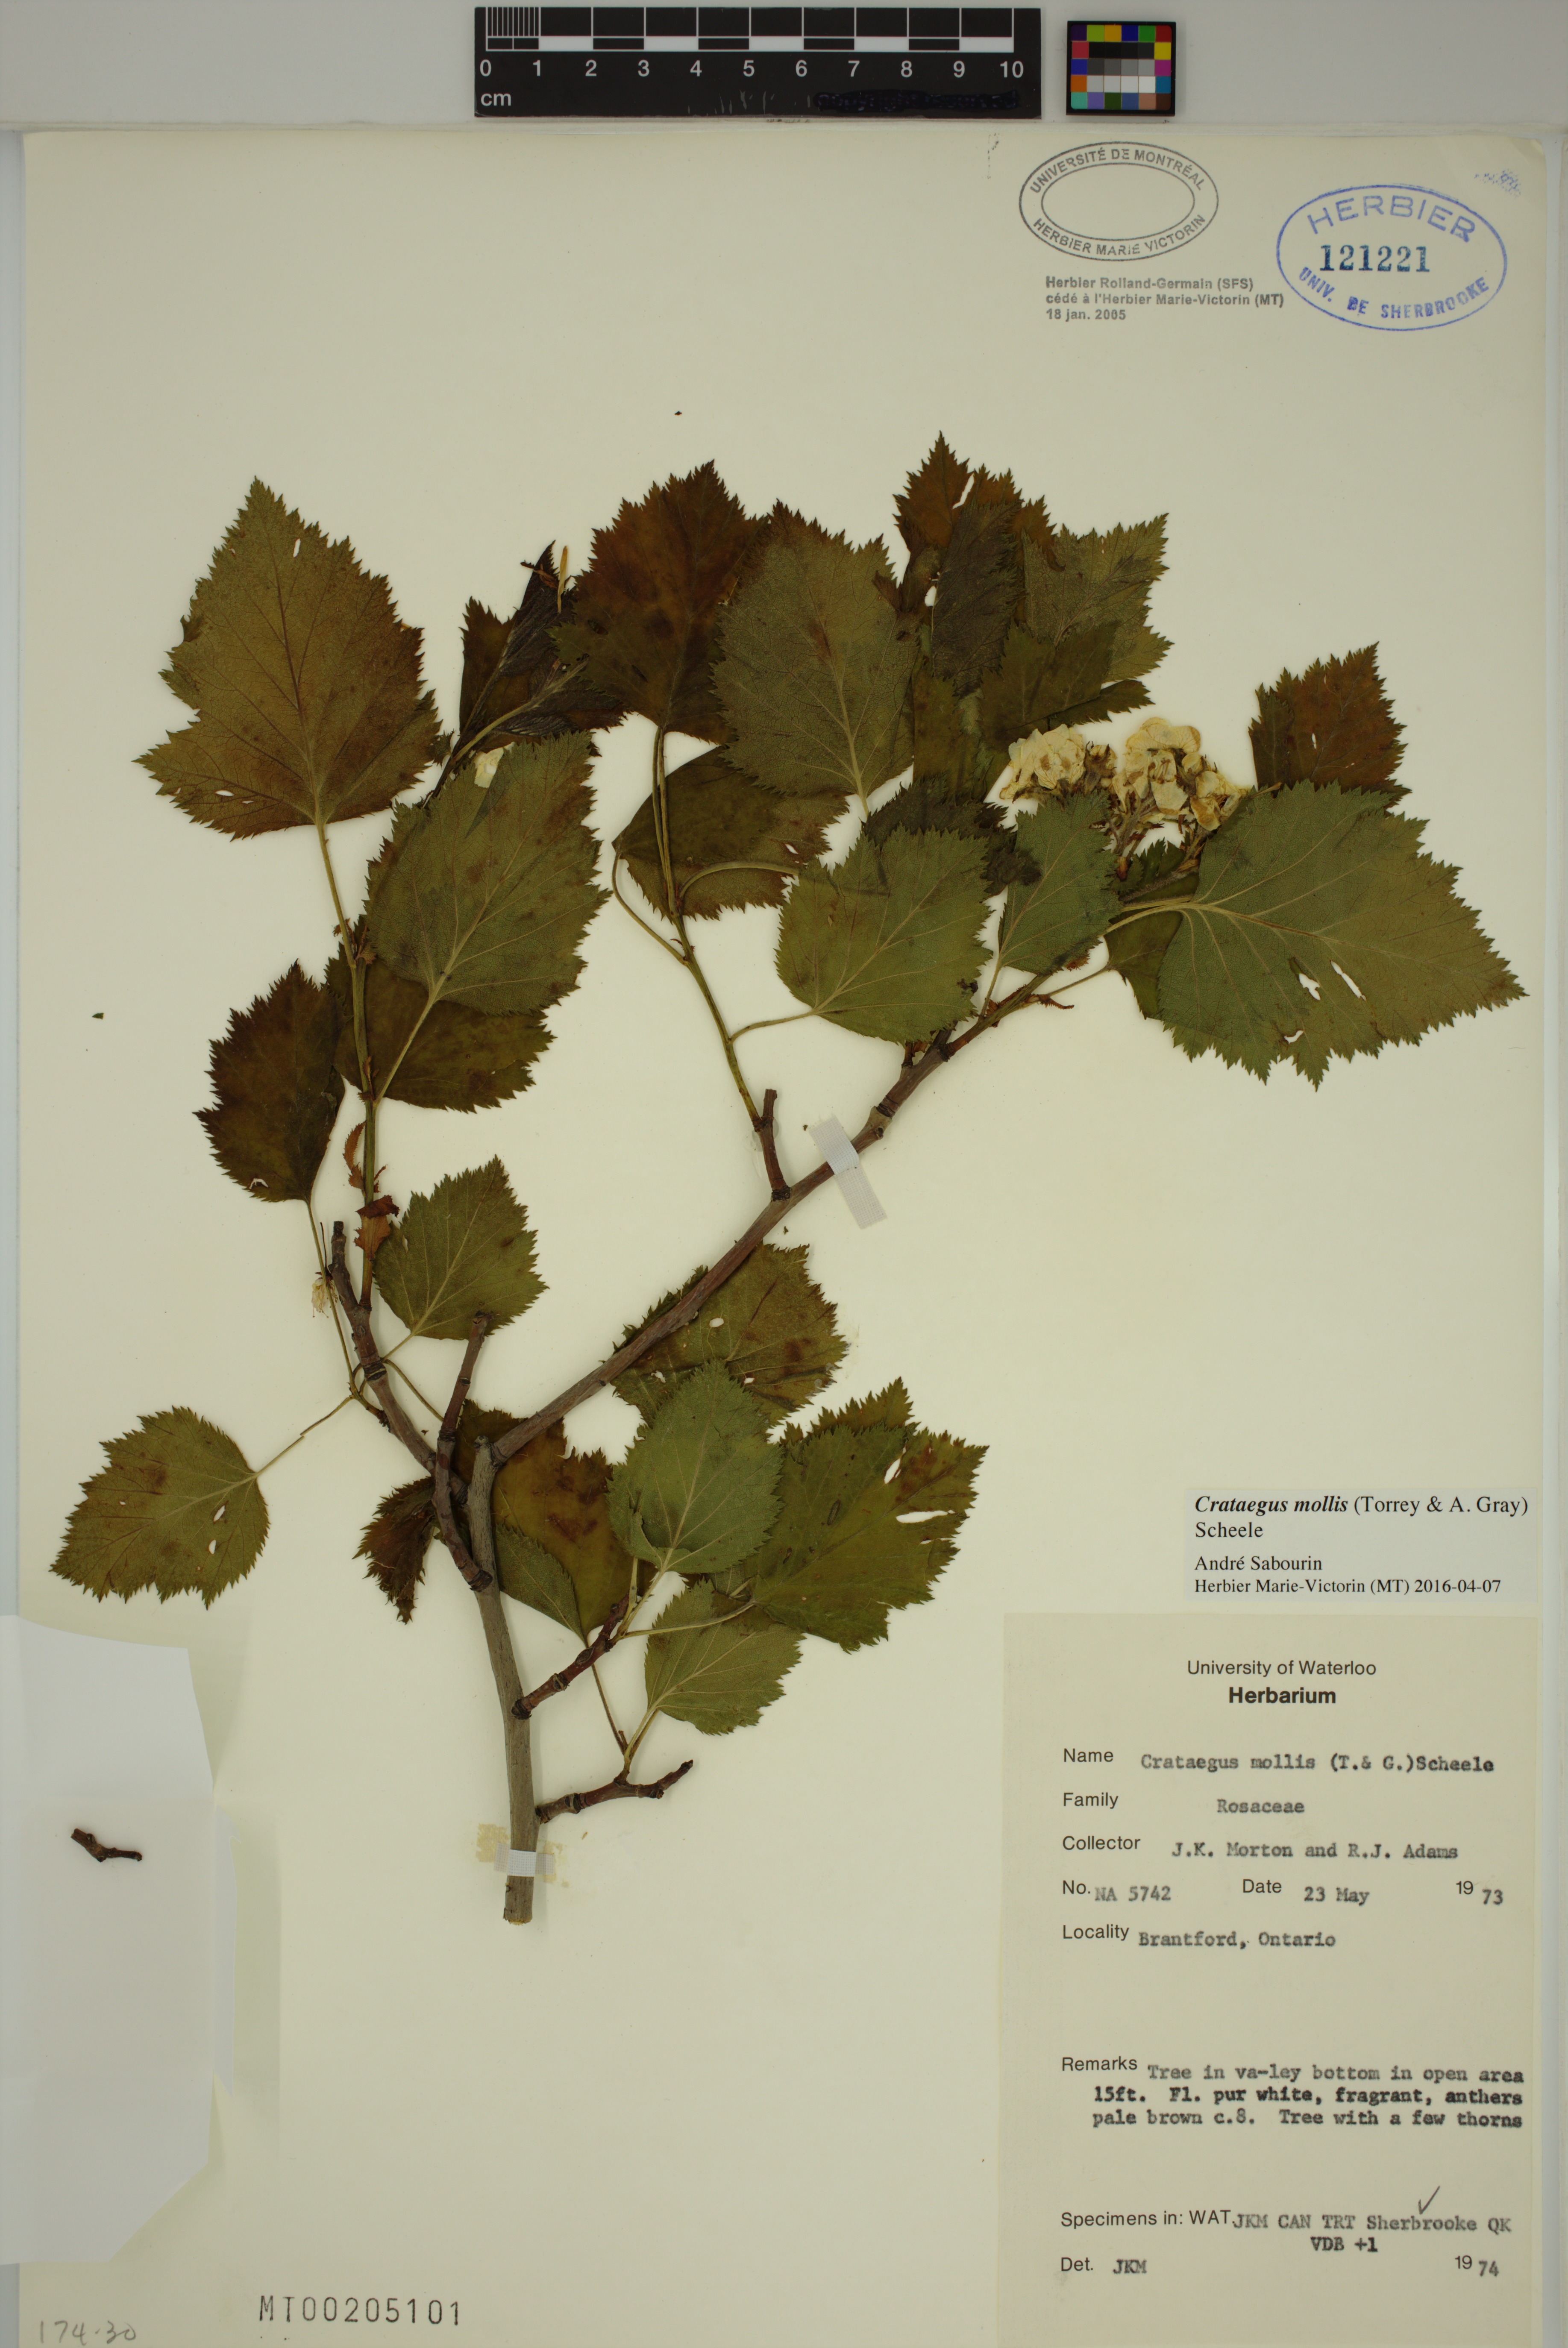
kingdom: Plantae
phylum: Tracheophyta
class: Magnoliopsida
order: Rosales
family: Rosaceae
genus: Crataegus
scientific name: Crataegus pennsylvanica
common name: Pennsylvania hawthorn
